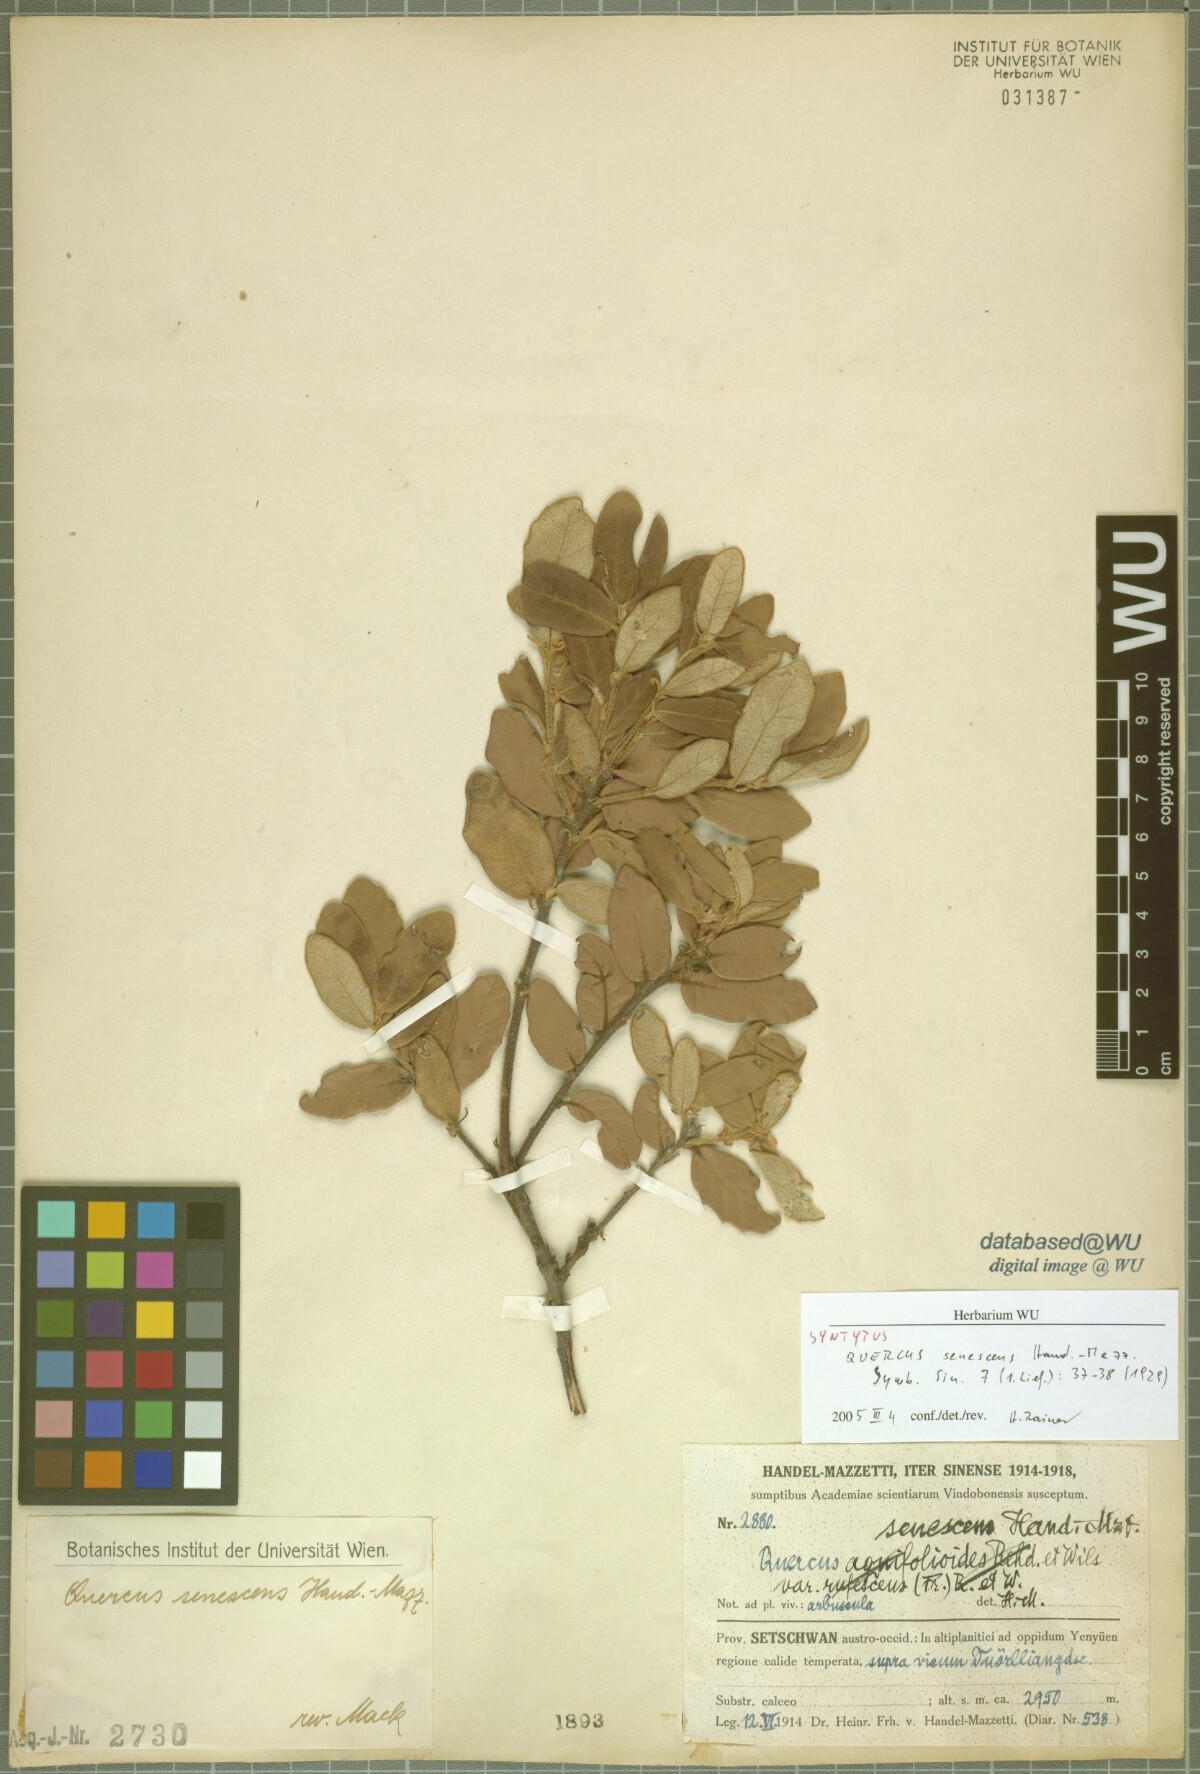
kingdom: Plantae
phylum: Tracheophyta
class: Magnoliopsida
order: Fagales
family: Fagaceae
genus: Quercus
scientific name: Quercus senescens
